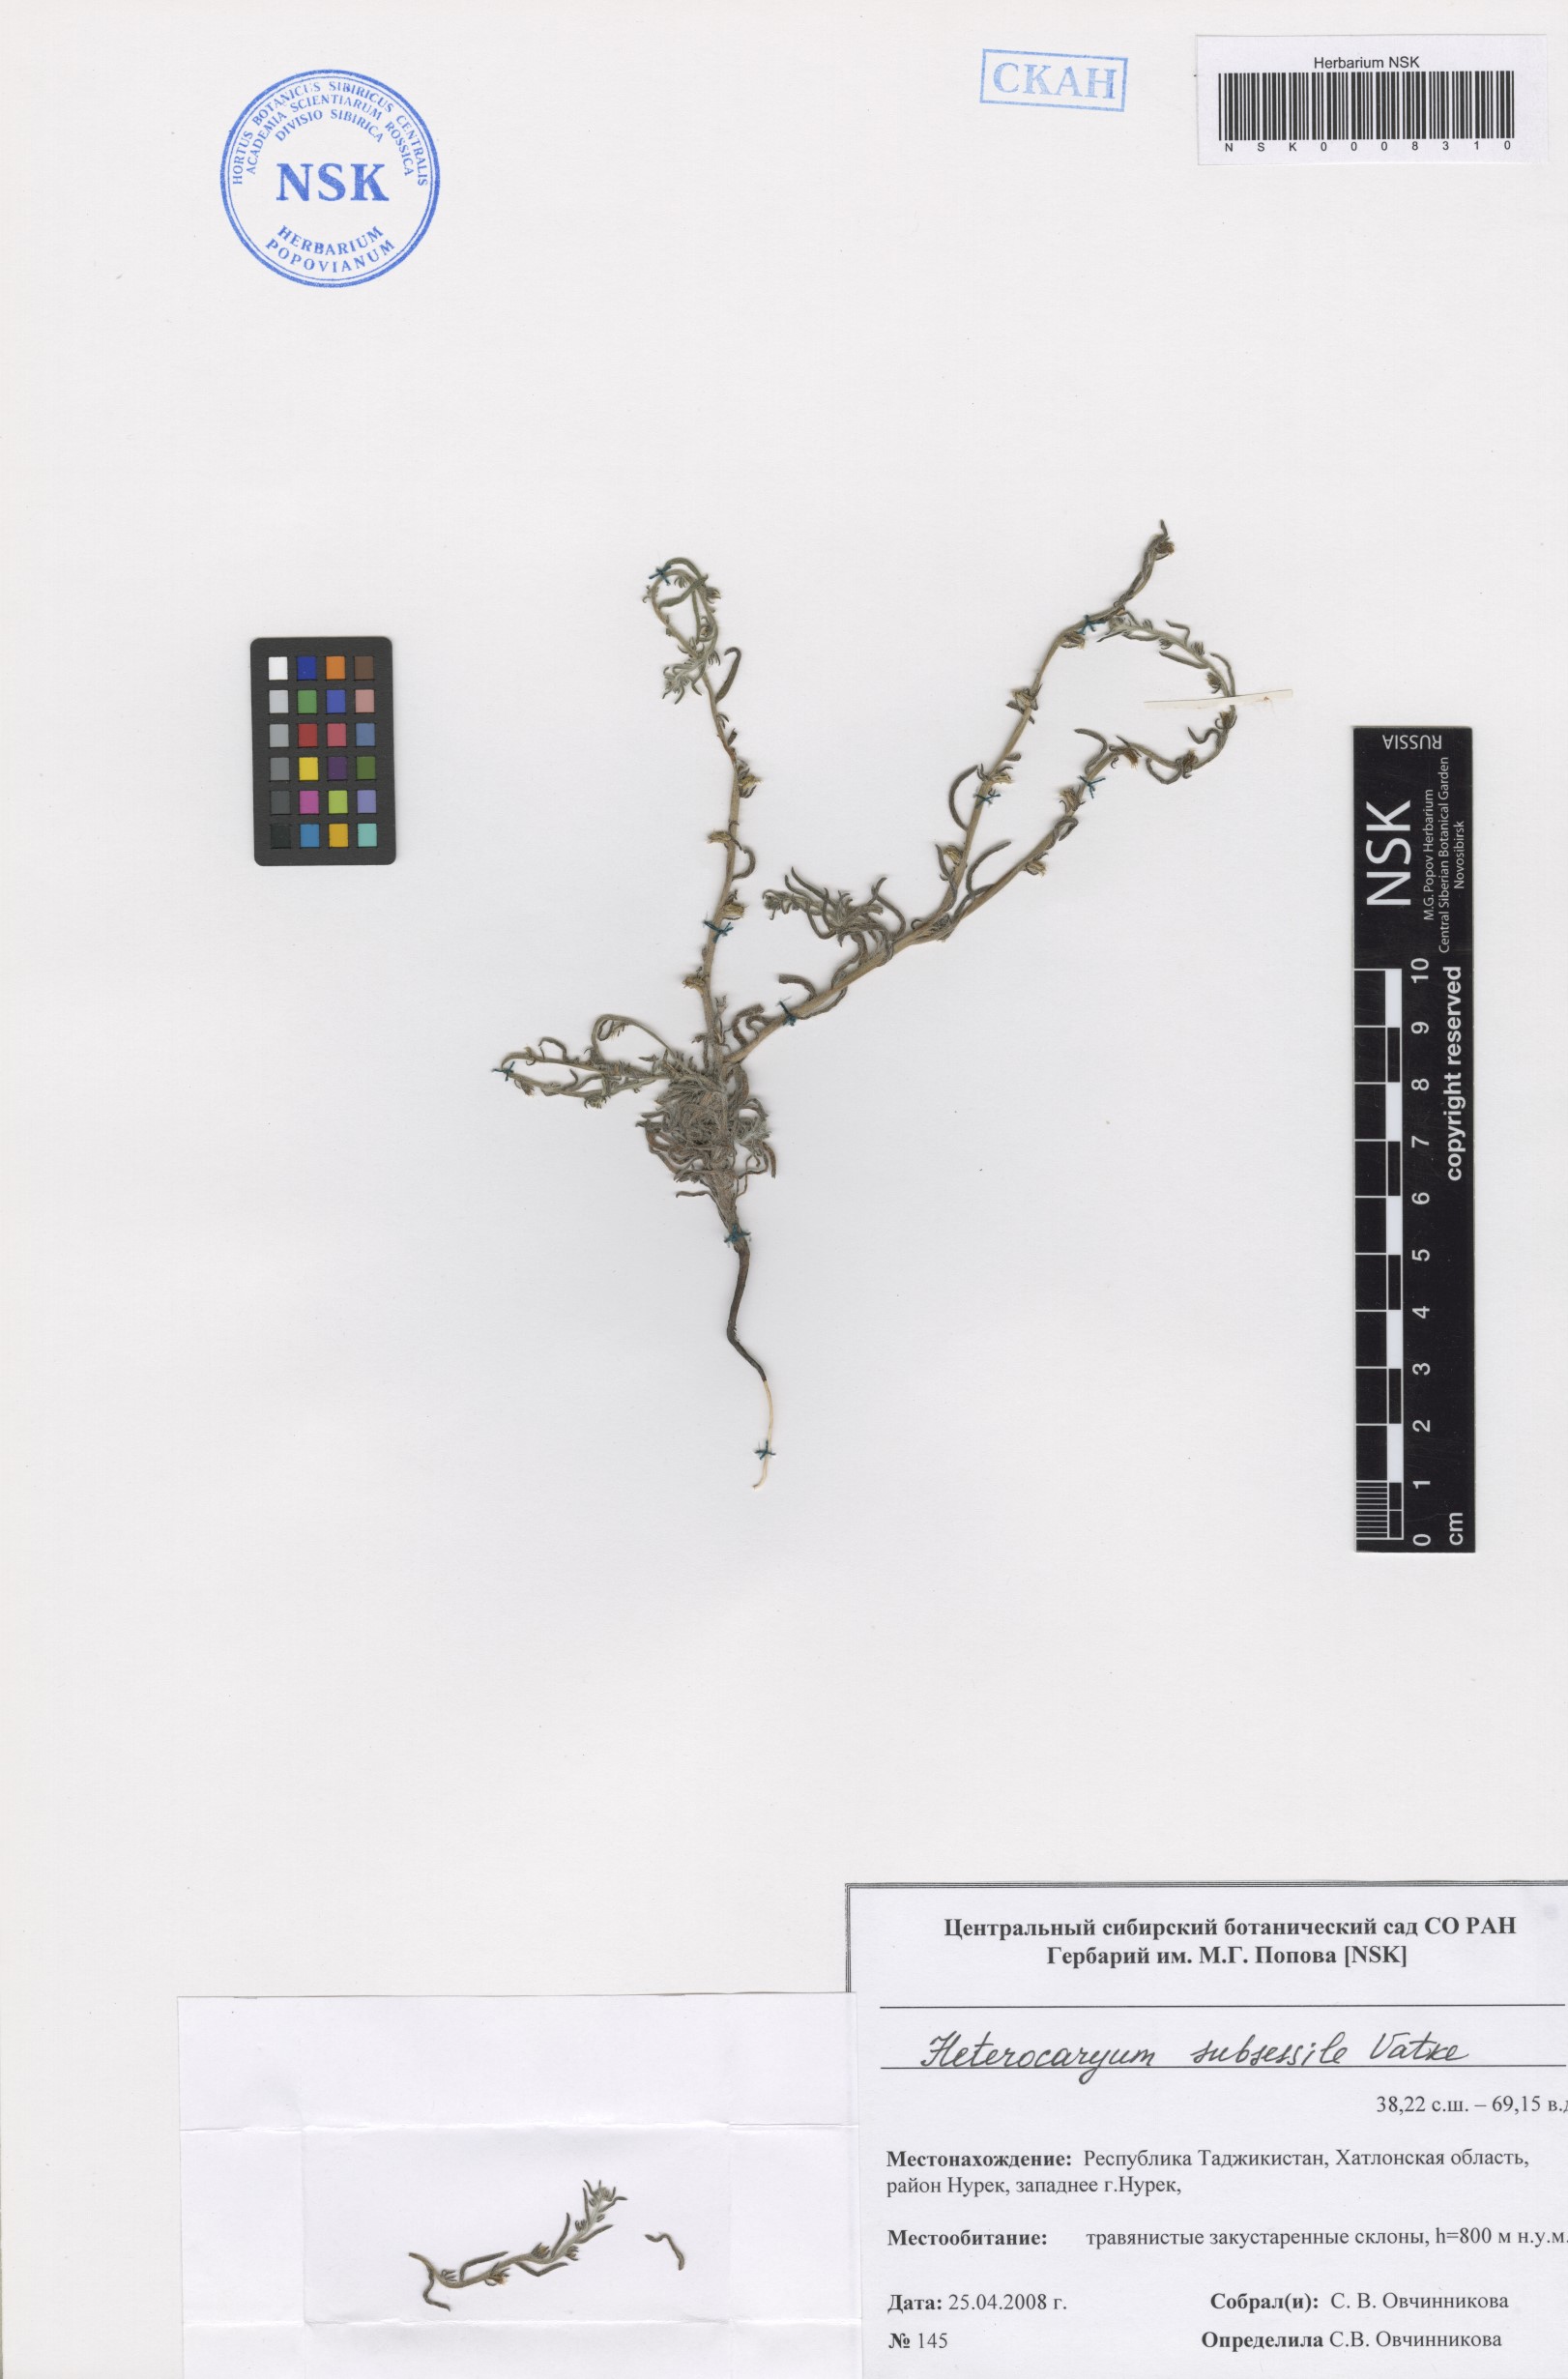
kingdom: Plantae
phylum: Tracheophyta
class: Magnoliopsida
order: Boraginales
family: Boraginaceae
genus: Pseudoheterocaryum
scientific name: Pseudoheterocaryum subsessile
